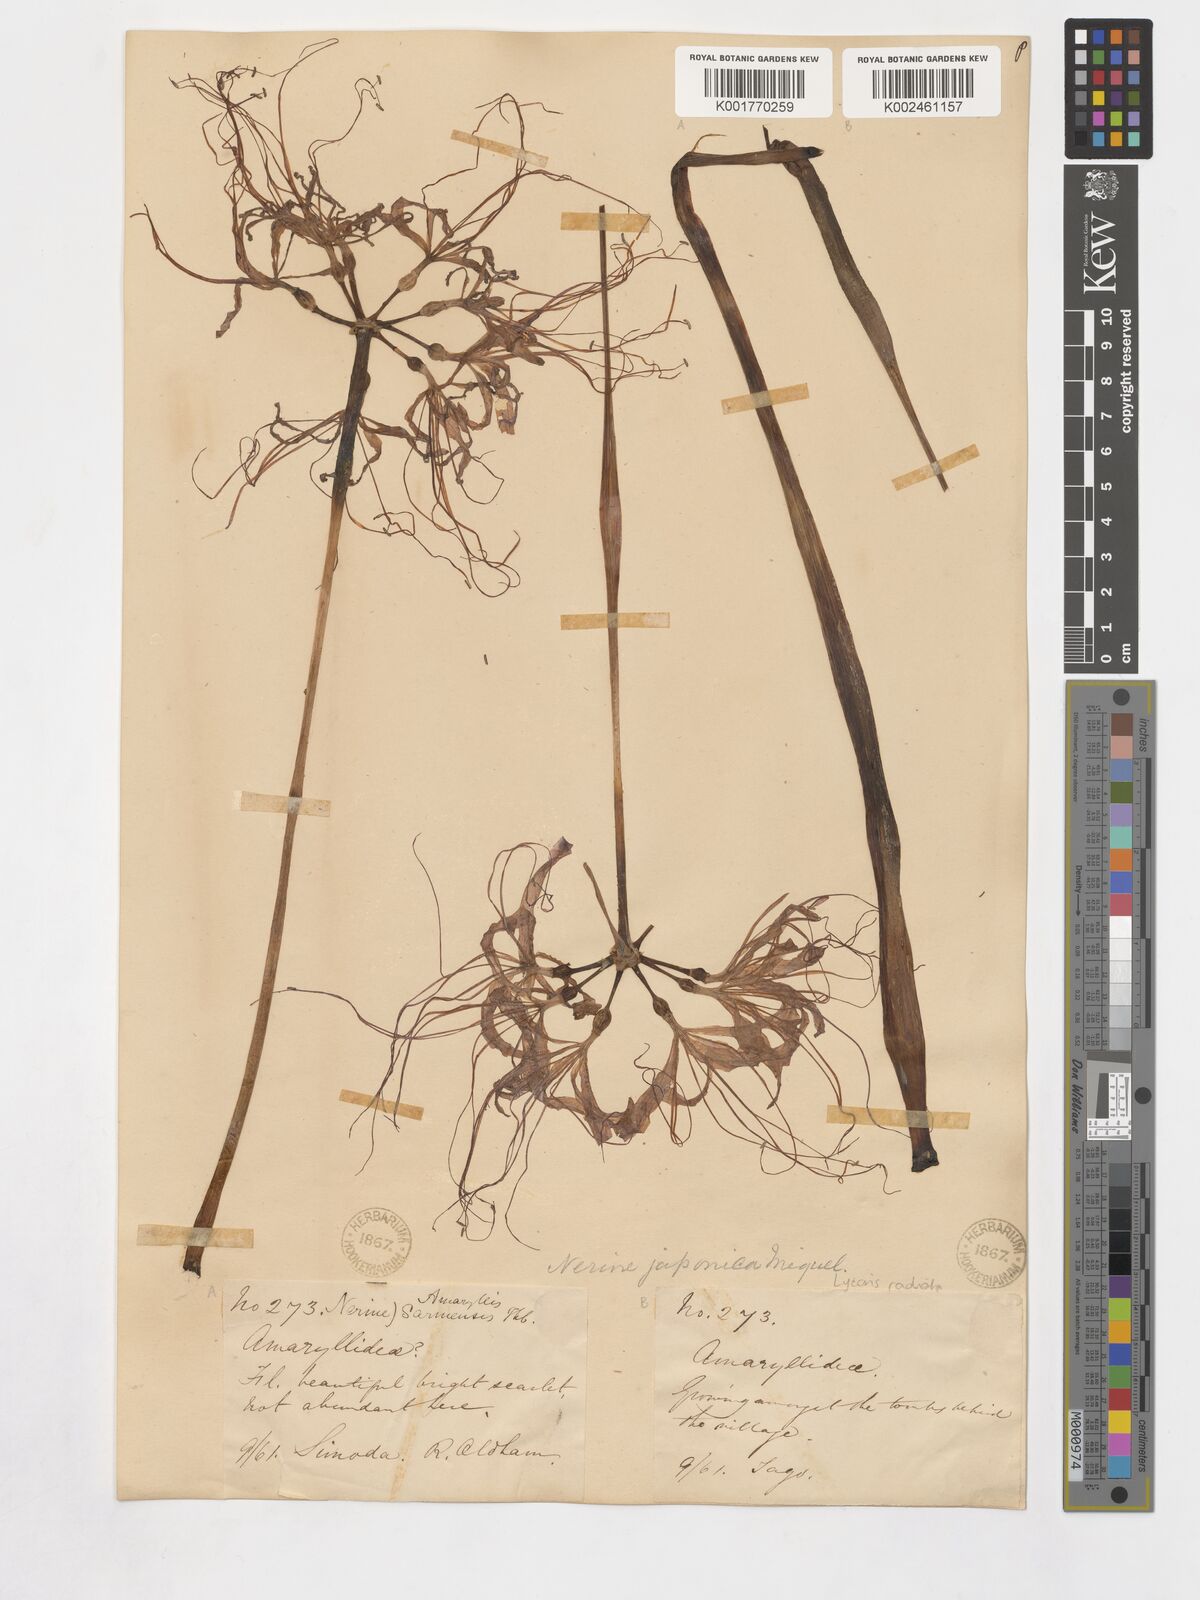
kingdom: Plantae
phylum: Tracheophyta
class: Liliopsida
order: Asparagales
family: Amaryllidaceae
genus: Lycoris
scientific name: Lycoris radiata
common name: Red spider lily
